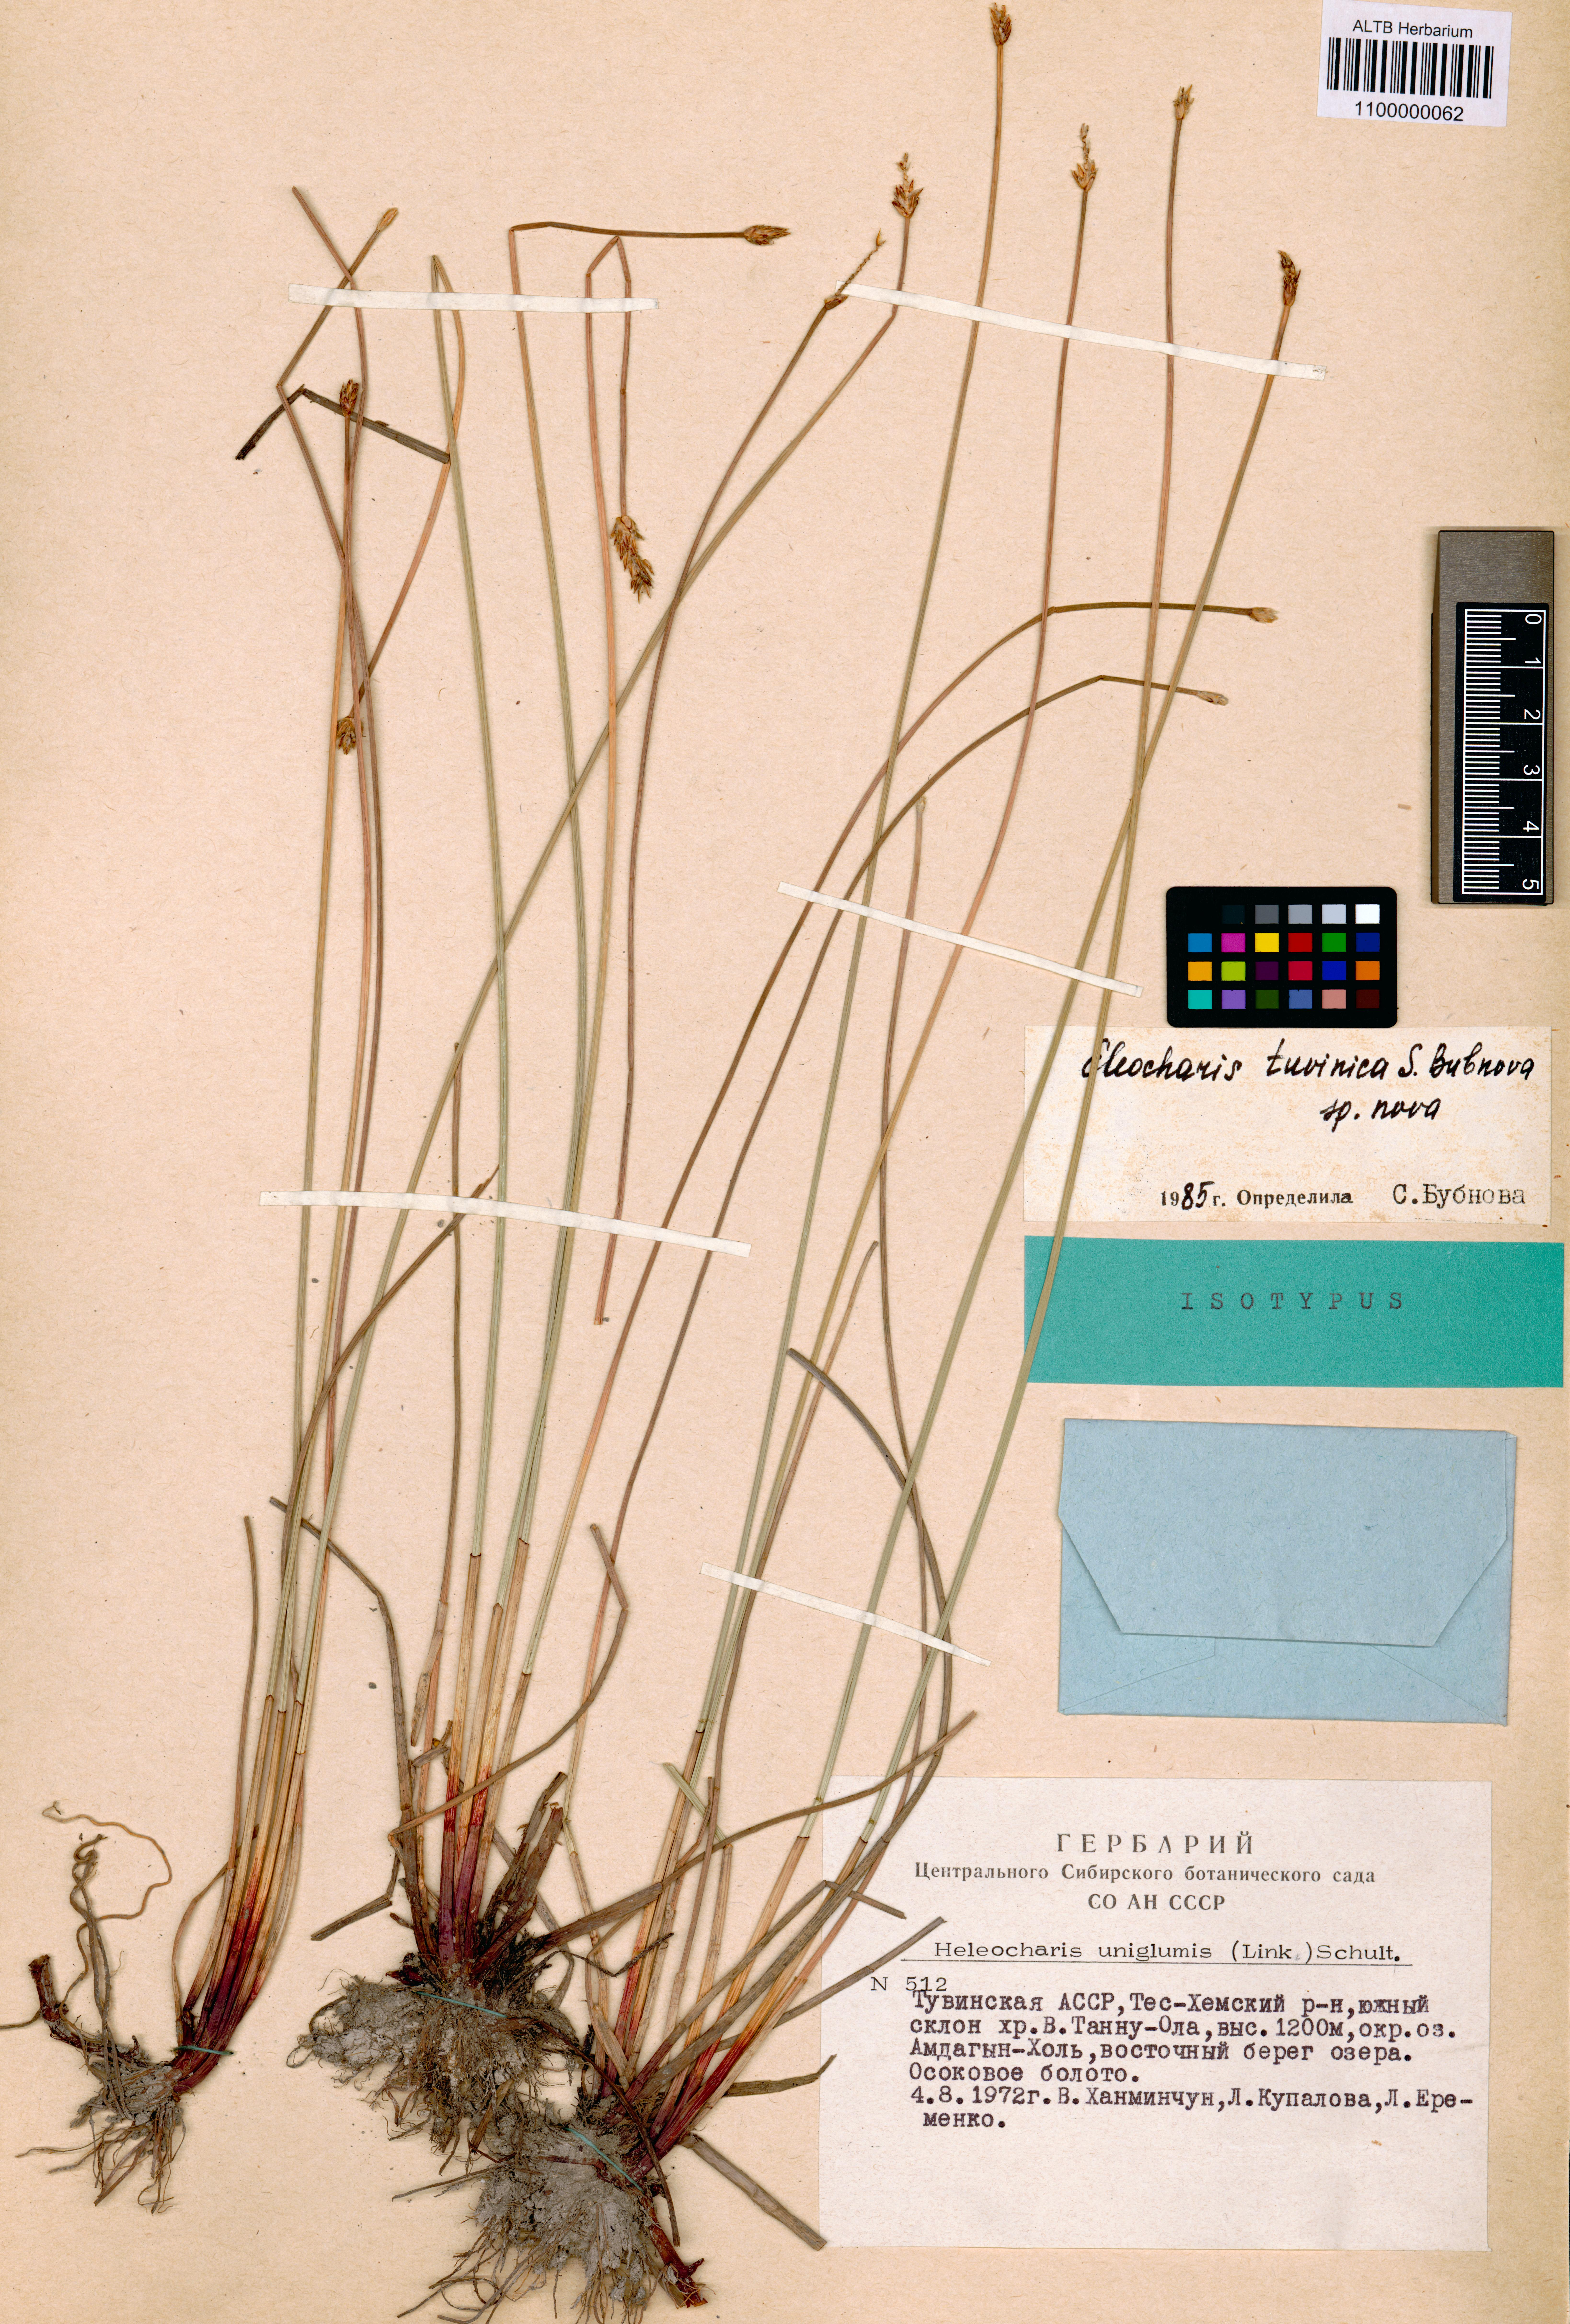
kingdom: Plantae
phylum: Tracheophyta
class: Liliopsida
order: Poales
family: Cyperaceae
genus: Eleocharis
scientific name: Eleocharis uniglumis
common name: Slender spike-rush
